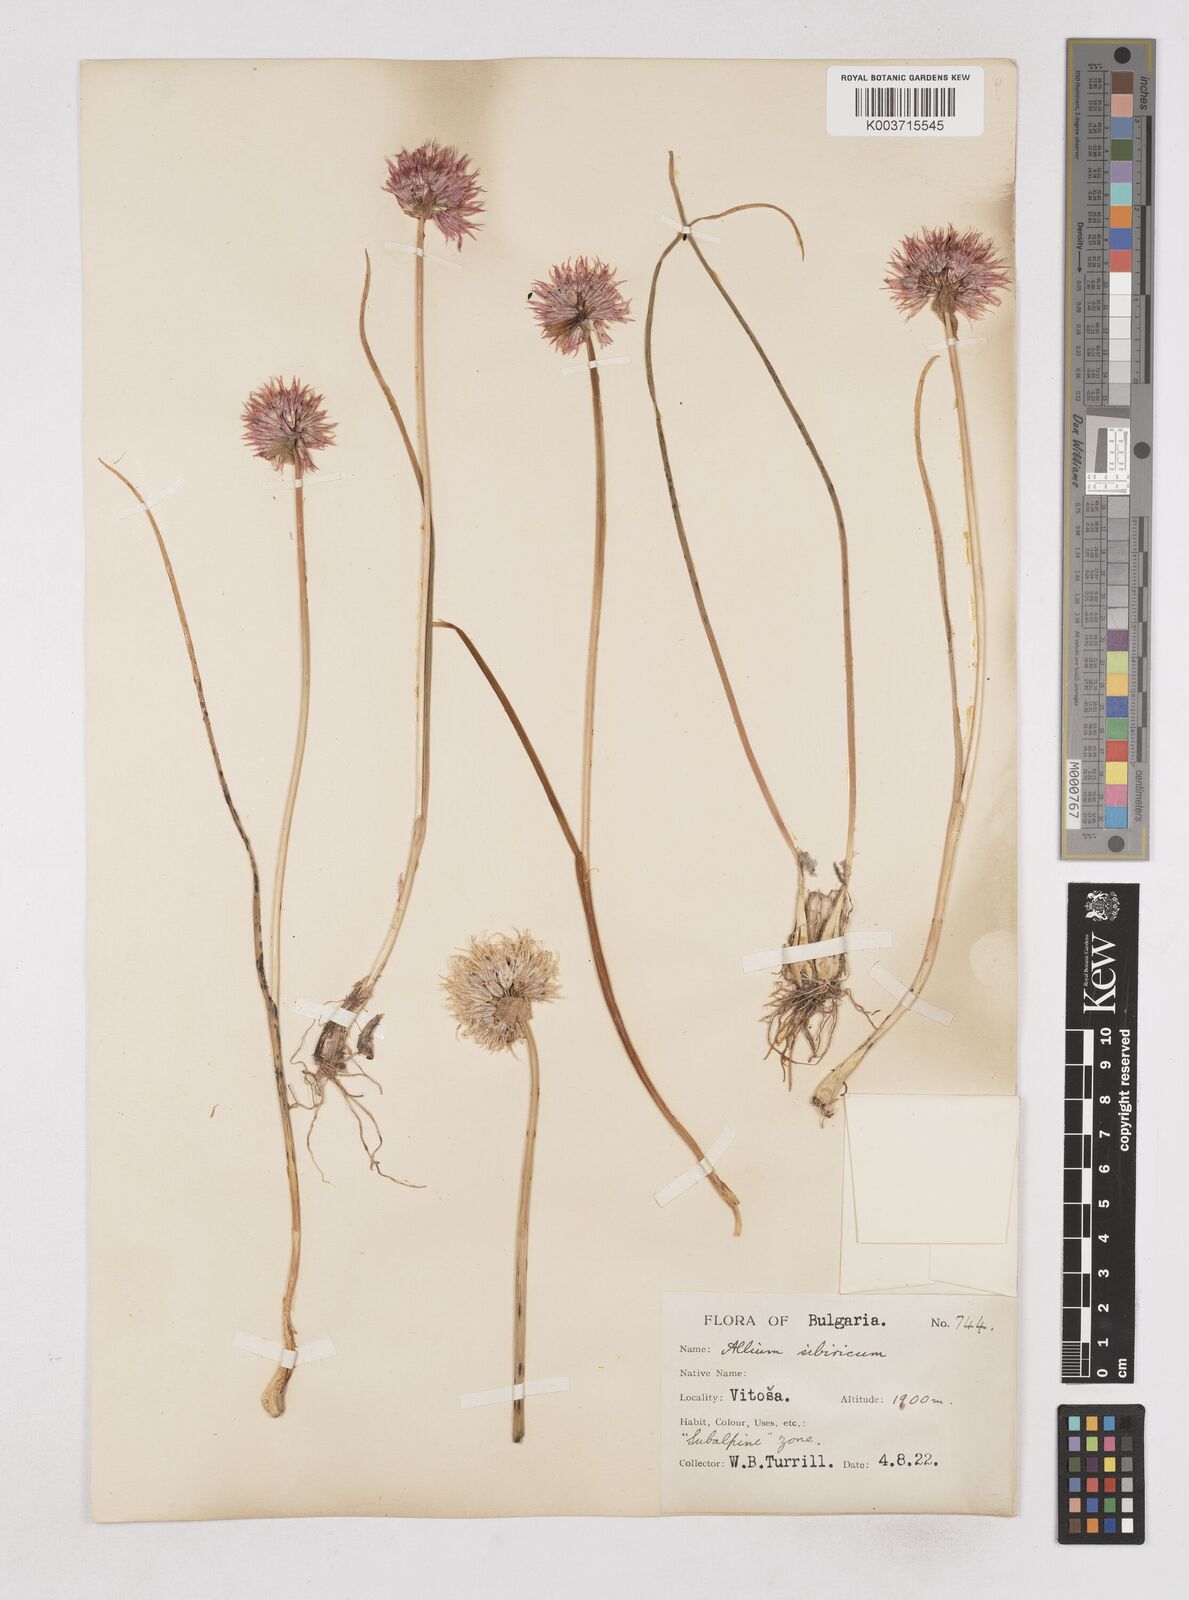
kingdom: Plantae
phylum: Tracheophyta
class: Liliopsida
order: Asparagales
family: Amaryllidaceae
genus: Allium
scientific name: Allium schoenoprasum
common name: Chives
